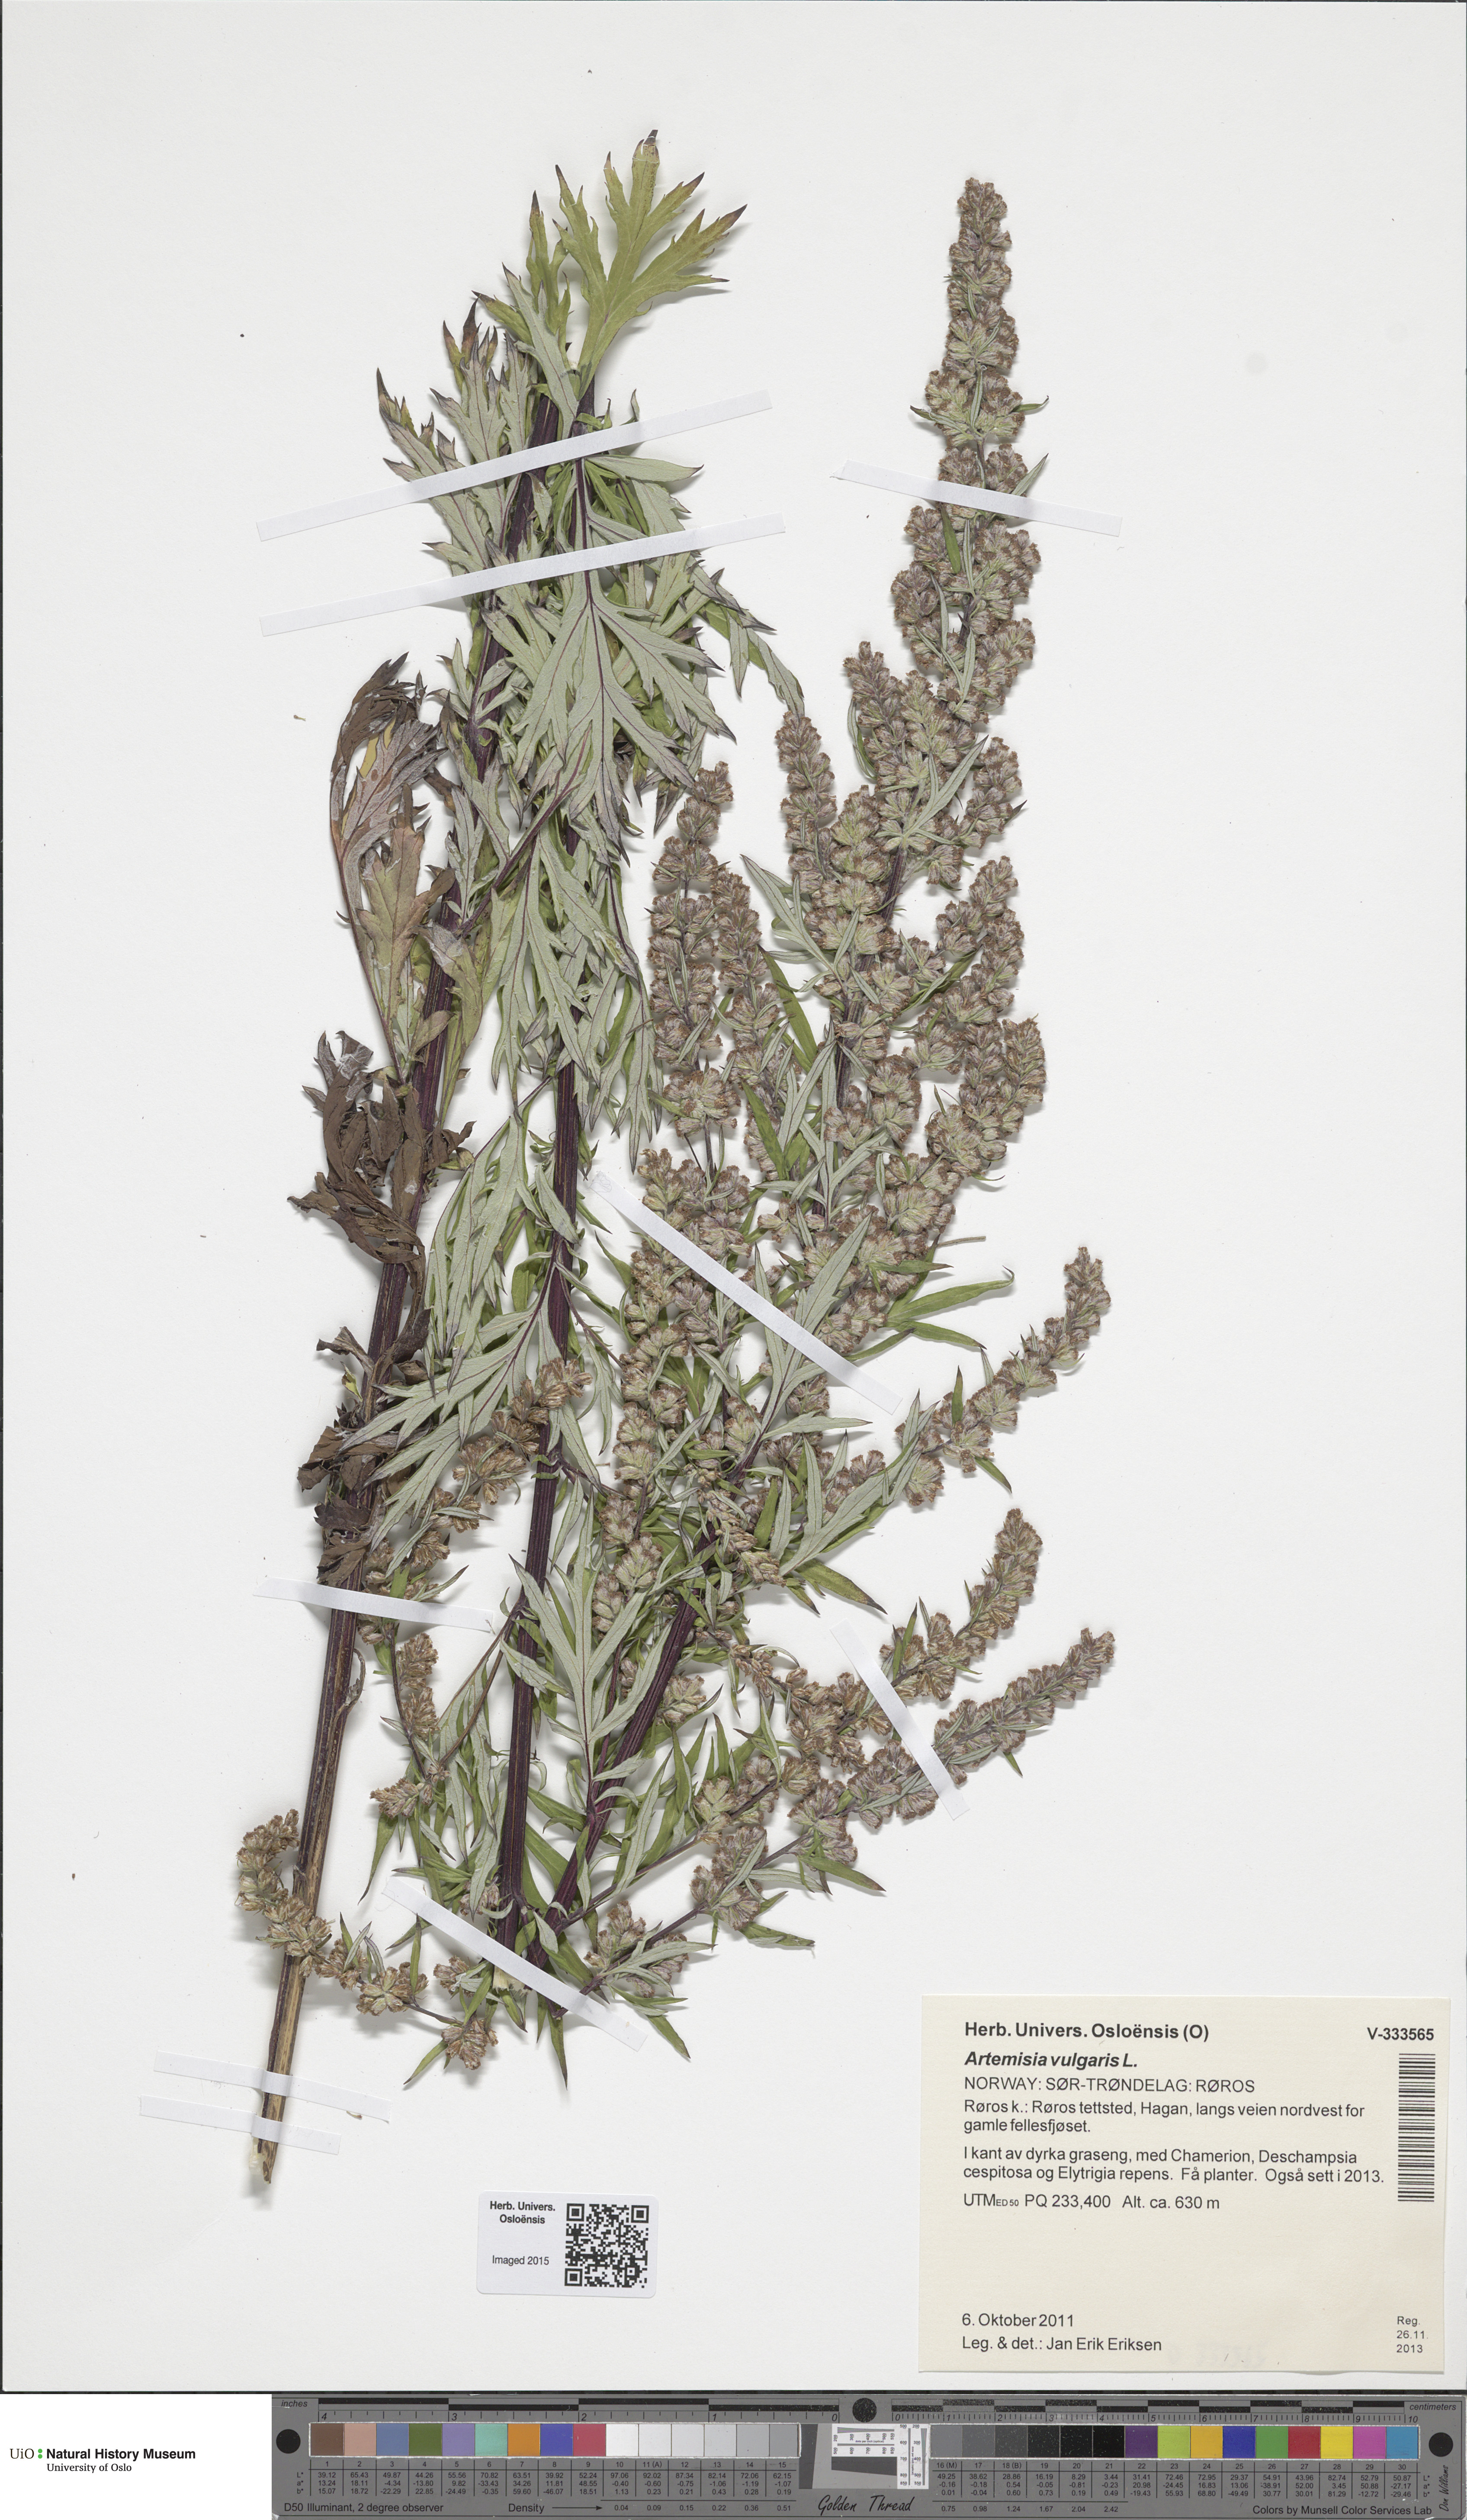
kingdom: Plantae
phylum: Tracheophyta
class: Magnoliopsida
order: Asterales
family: Asteraceae
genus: Artemisia
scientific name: Artemisia vulgaris
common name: Mugwort
